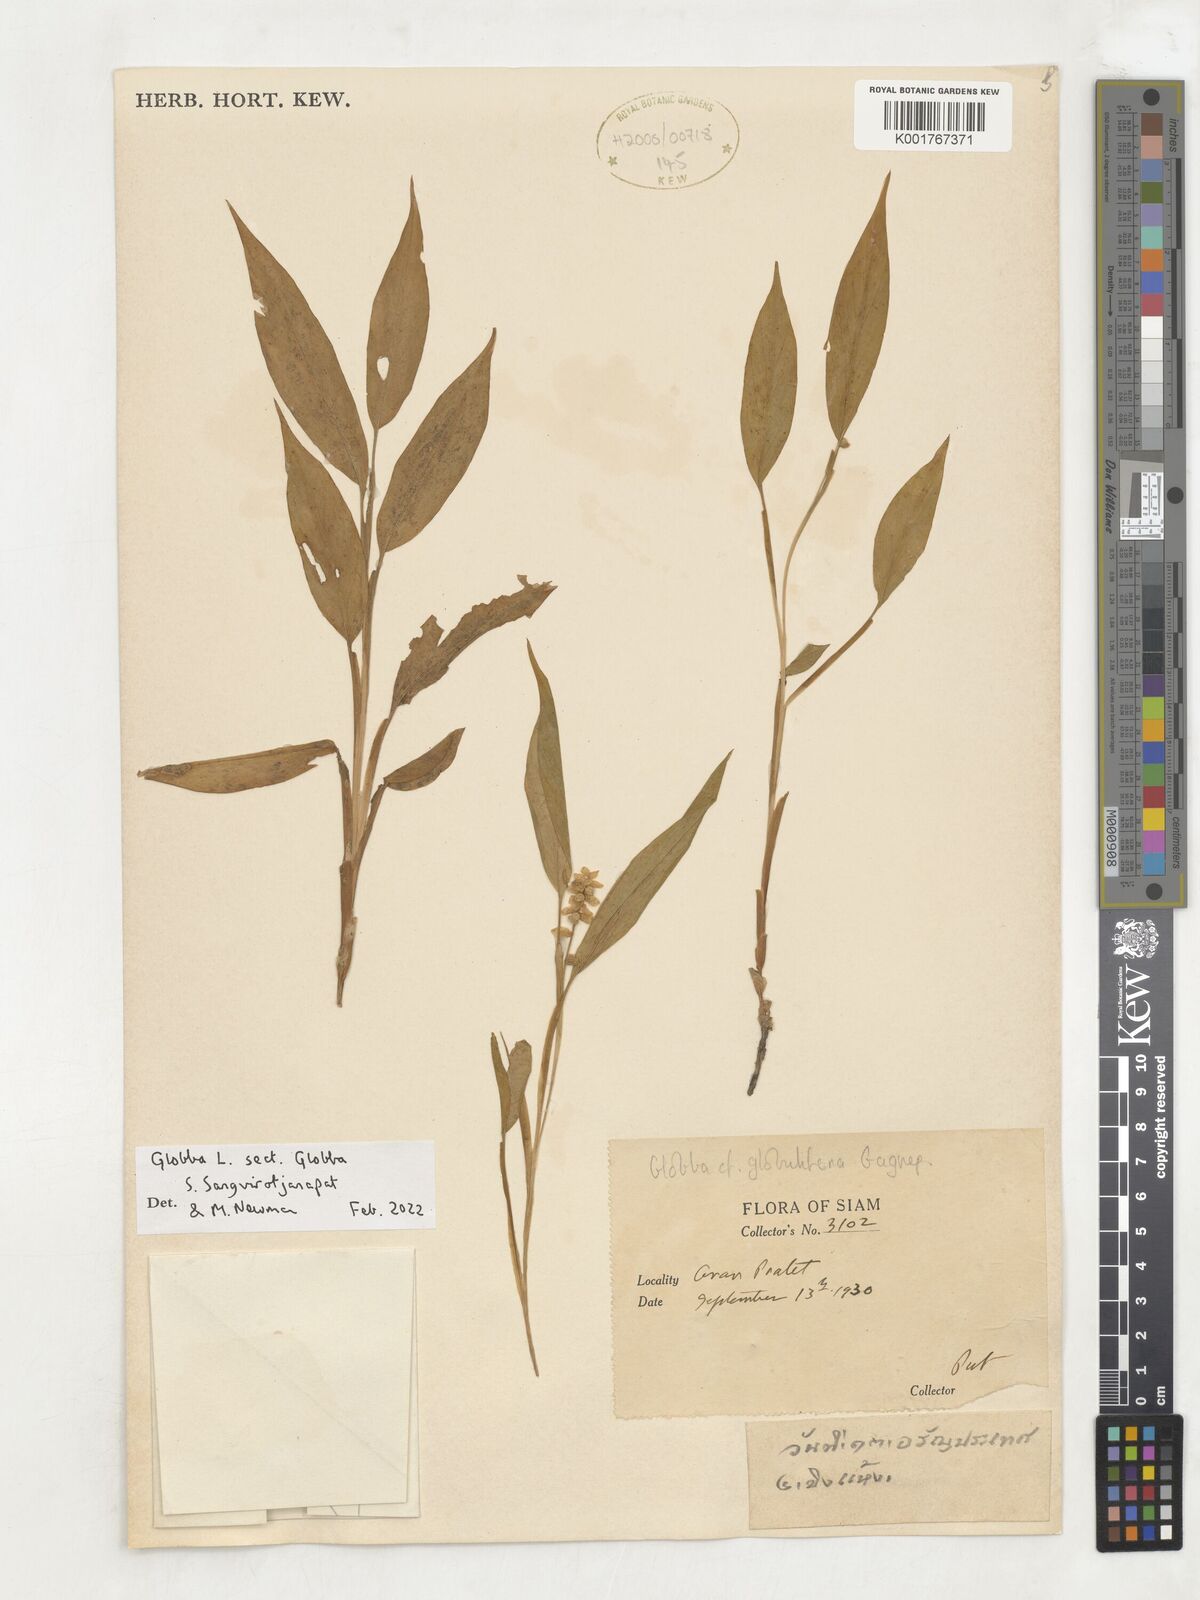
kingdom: Plantae
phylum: Tracheophyta
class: Liliopsida
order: Zingiberales
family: Zingiberaceae
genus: Globba
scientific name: Globba
